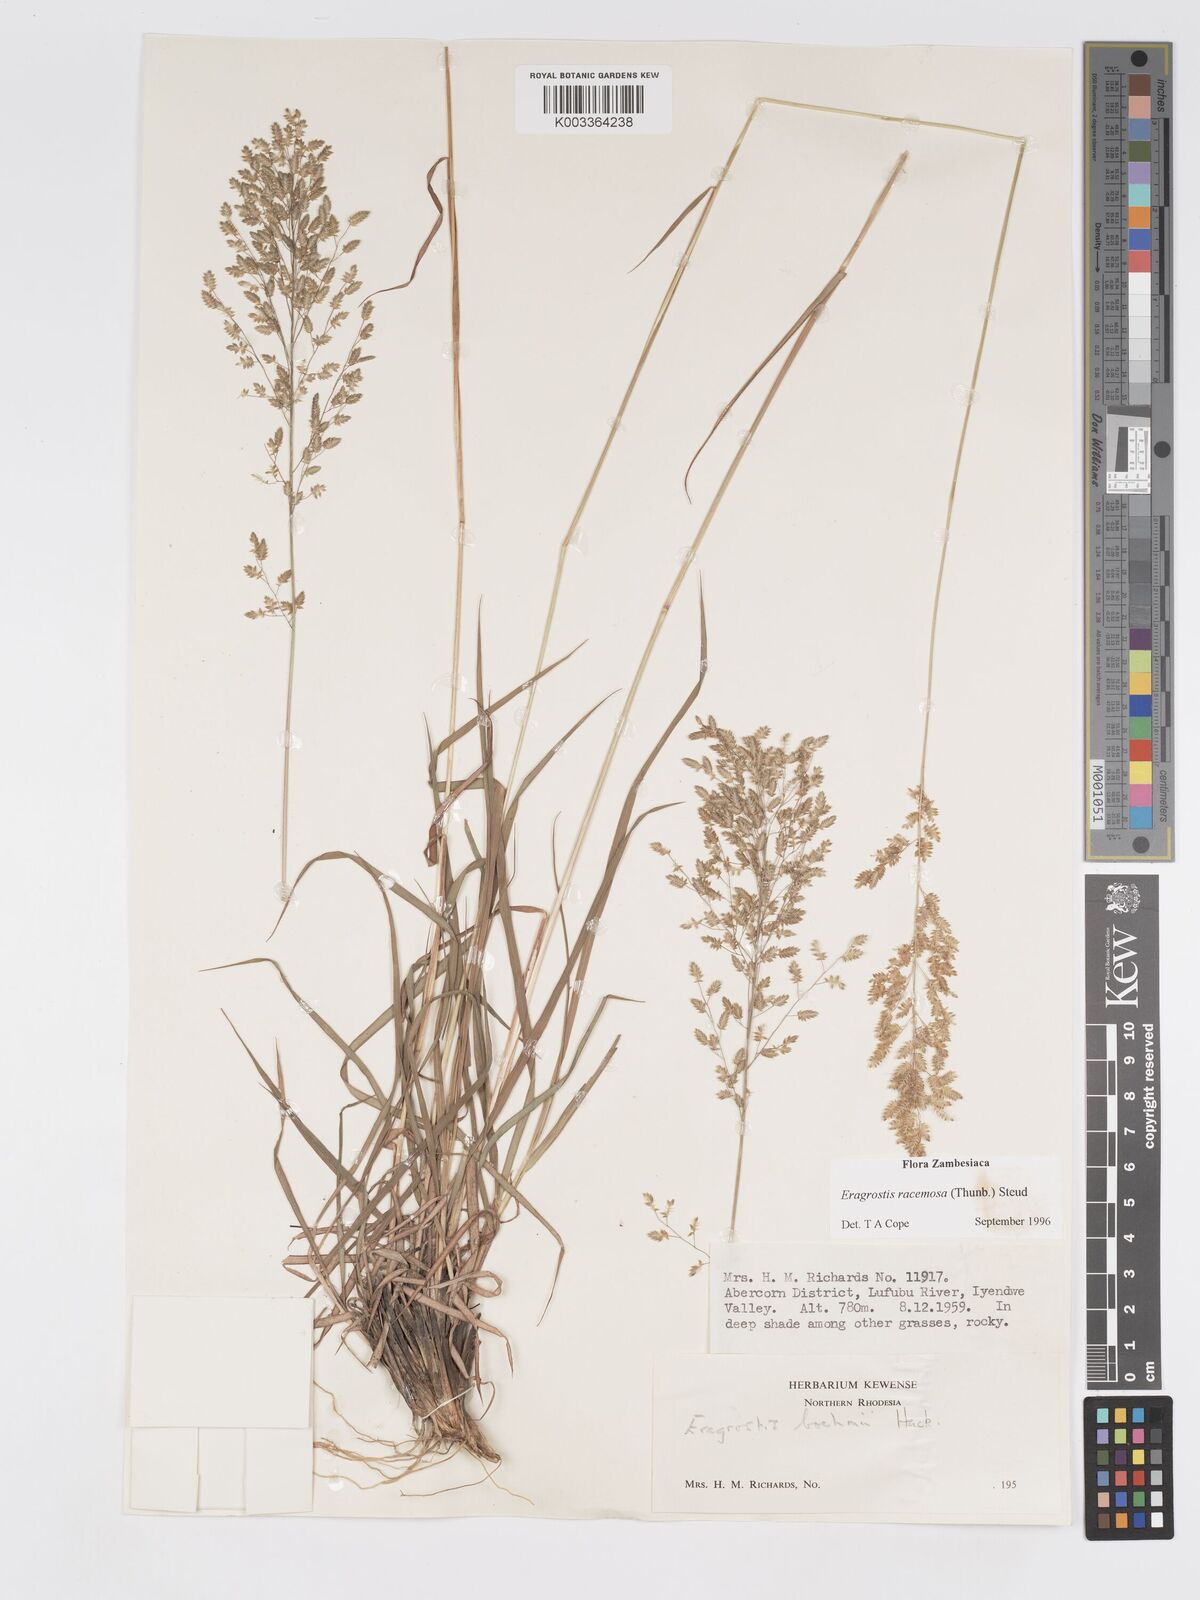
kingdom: Plantae
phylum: Tracheophyta
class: Liliopsida
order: Poales
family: Poaceae
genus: Eragrostis
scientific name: Eragrostis racemosa
